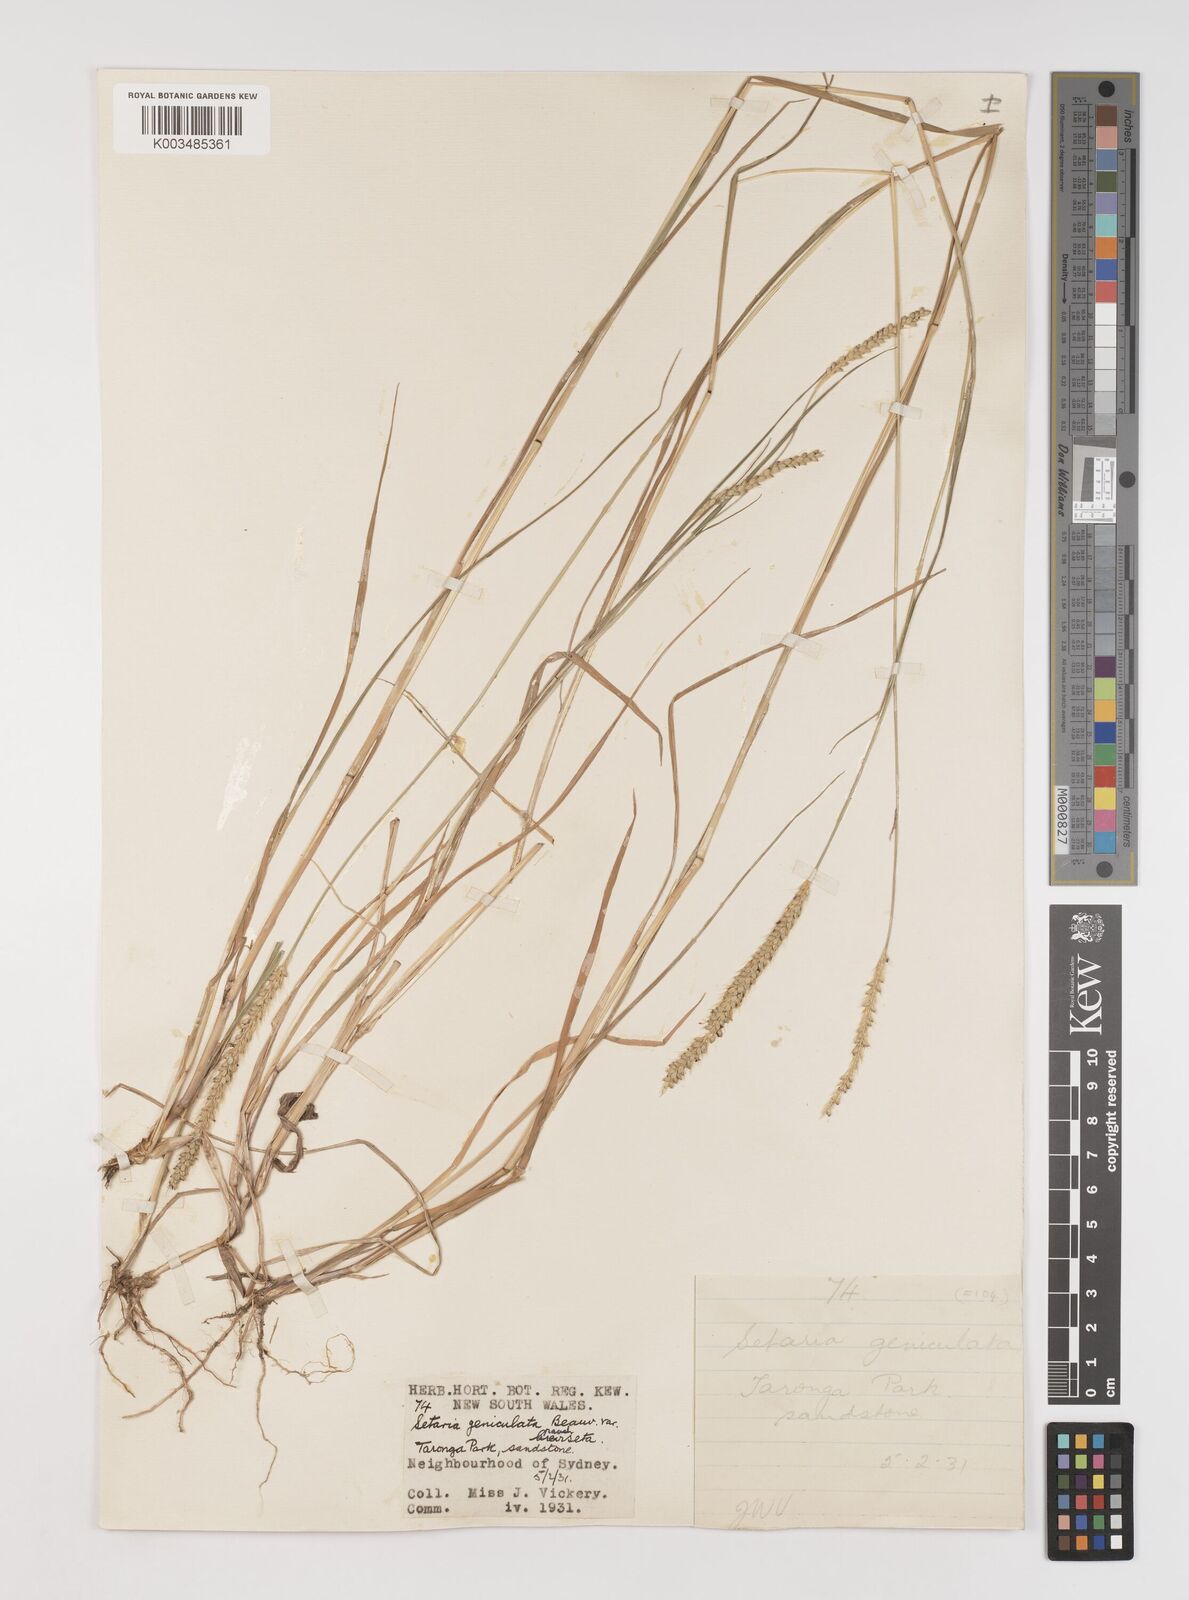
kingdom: Plantae
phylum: Tracheophyta
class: Liliopsida
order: Poales
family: Poaceae
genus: Setaria
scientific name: Setaria parviflora
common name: Knotroot bristle-grass
